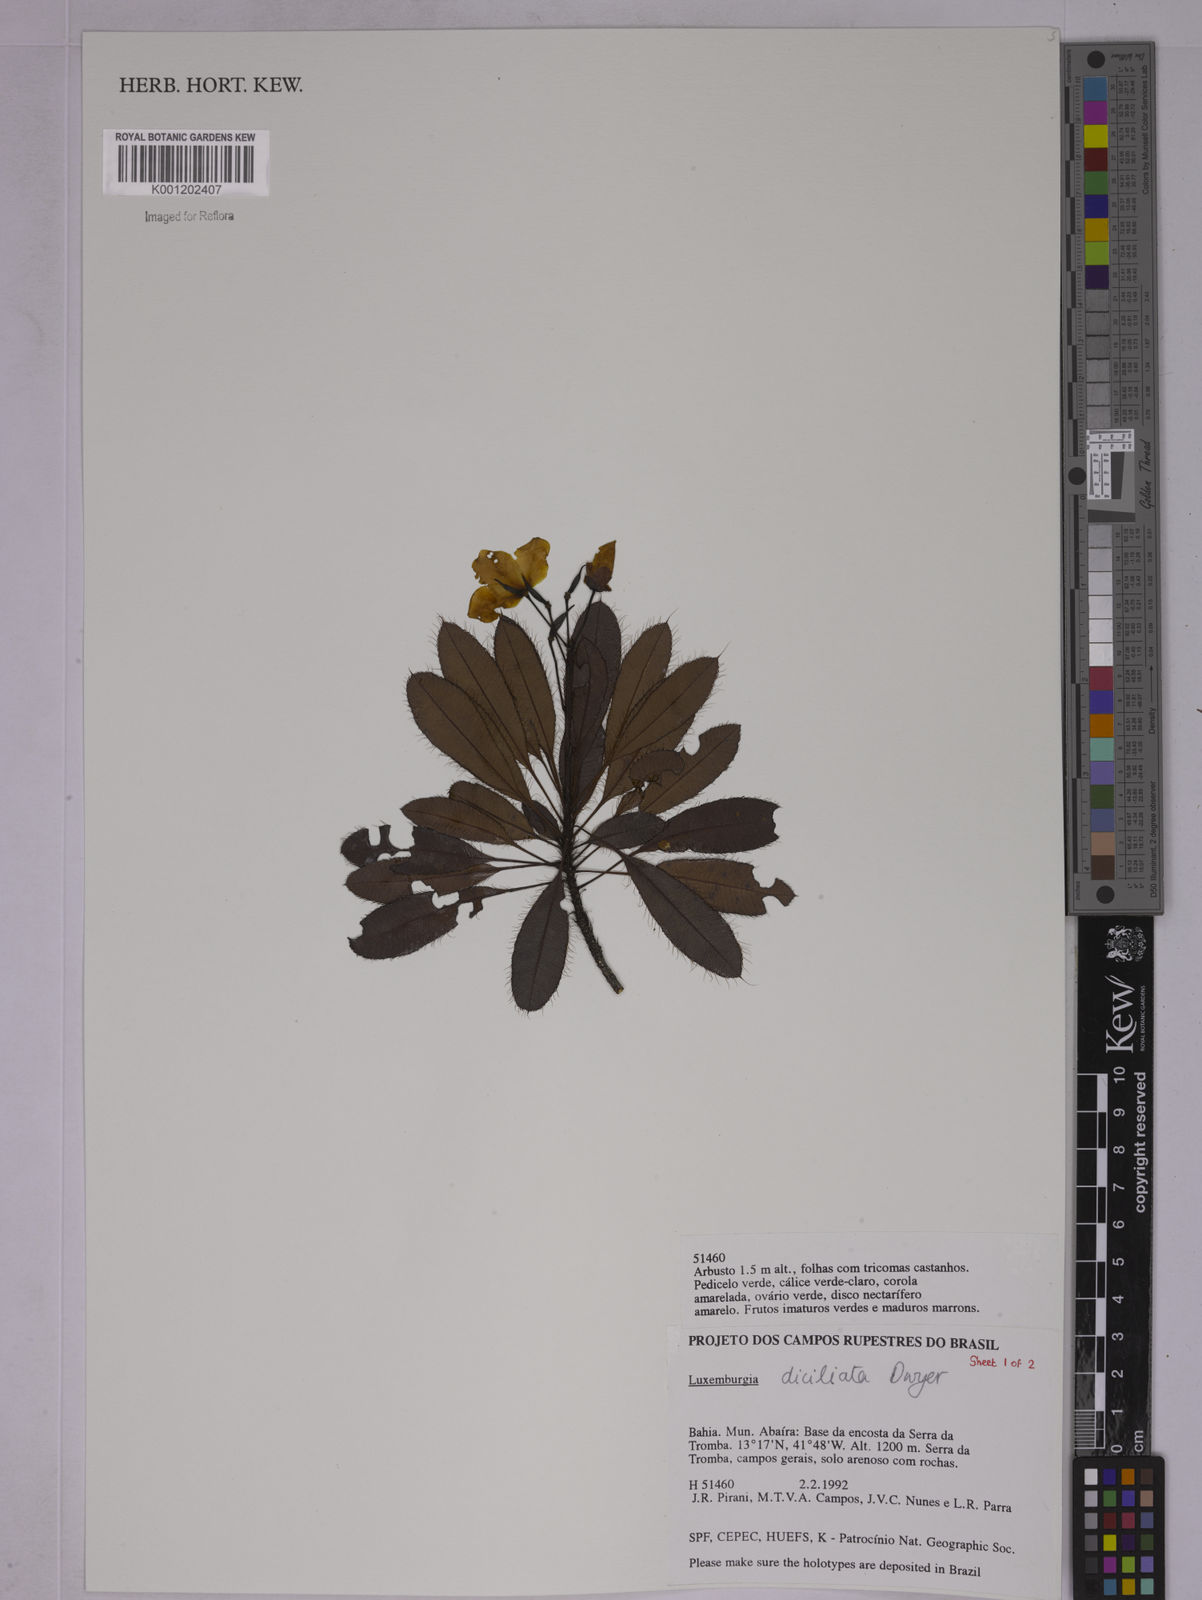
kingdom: Plantae
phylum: Tracheophyta
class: Magnoliopsida
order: Malpighiales
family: Ochnaceae
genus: Luxemburgia
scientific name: Luxemburgia diciliata
